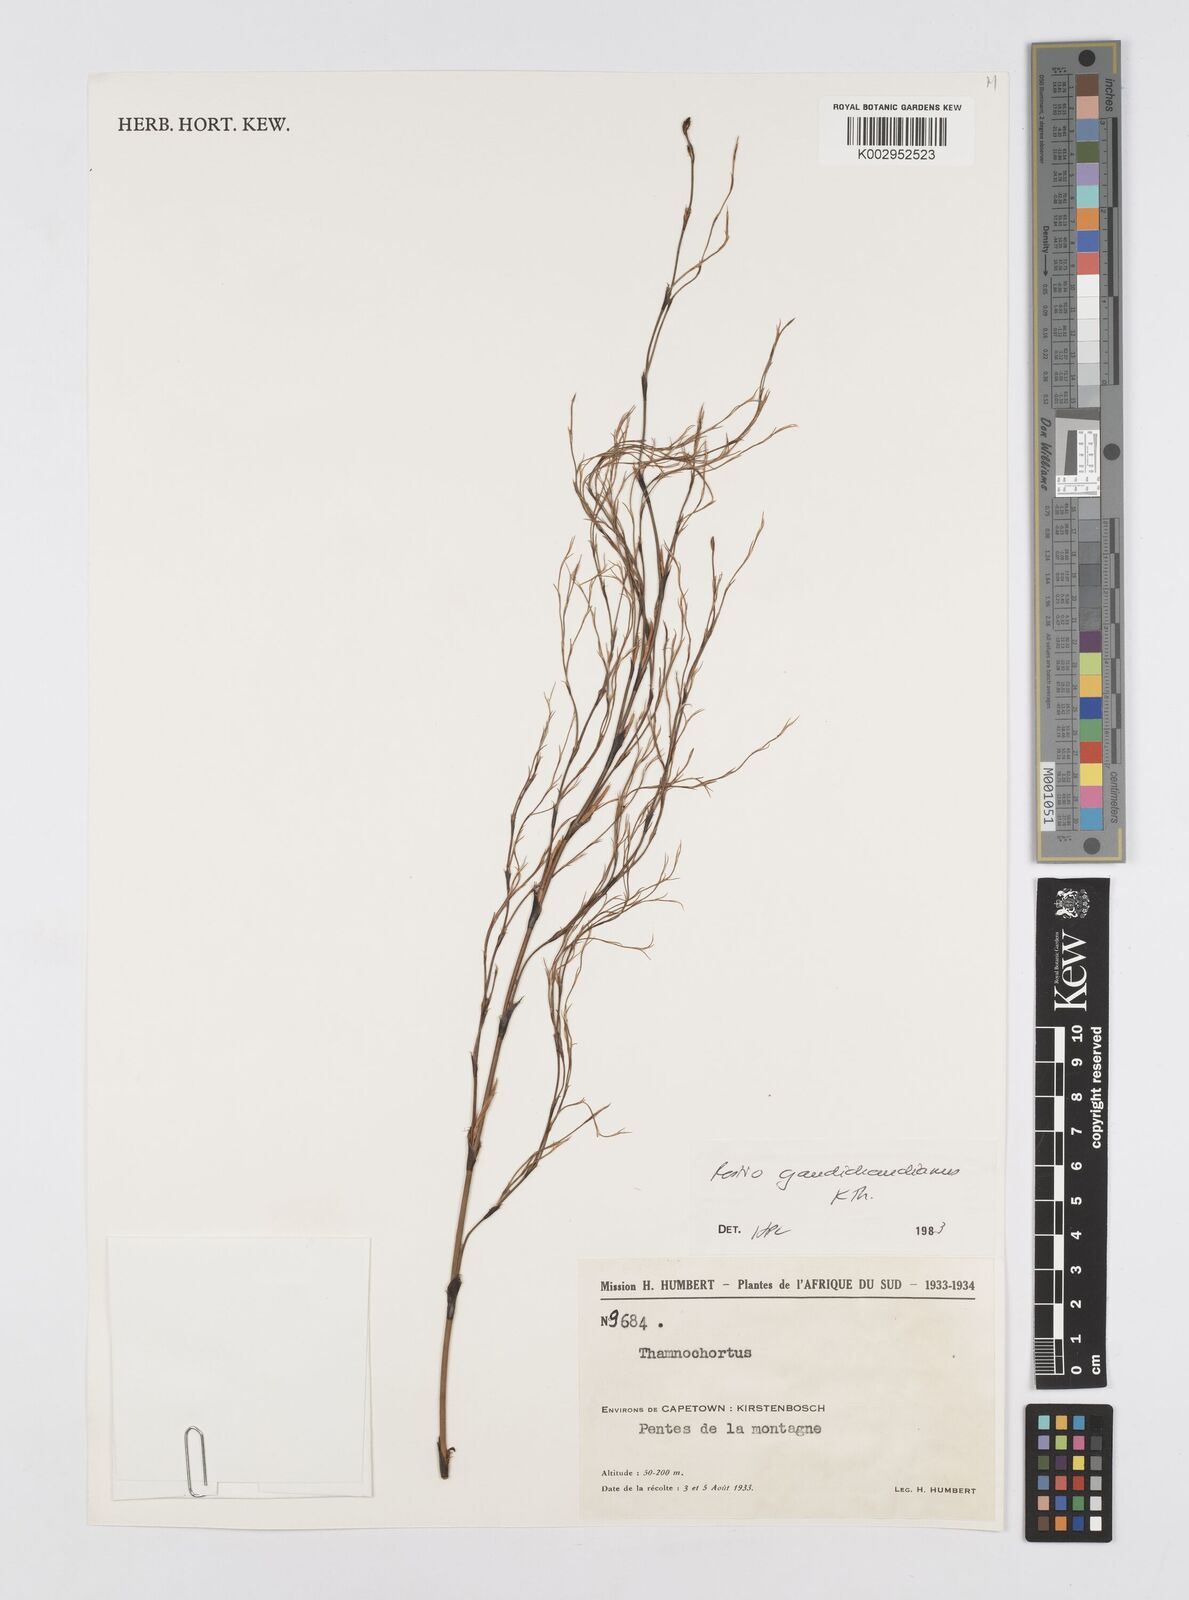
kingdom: Plantae
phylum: Tracheophyta
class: Liliopsida
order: Poales
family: Restionaceae
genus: Restio
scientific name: Restio gaudichaudianus
